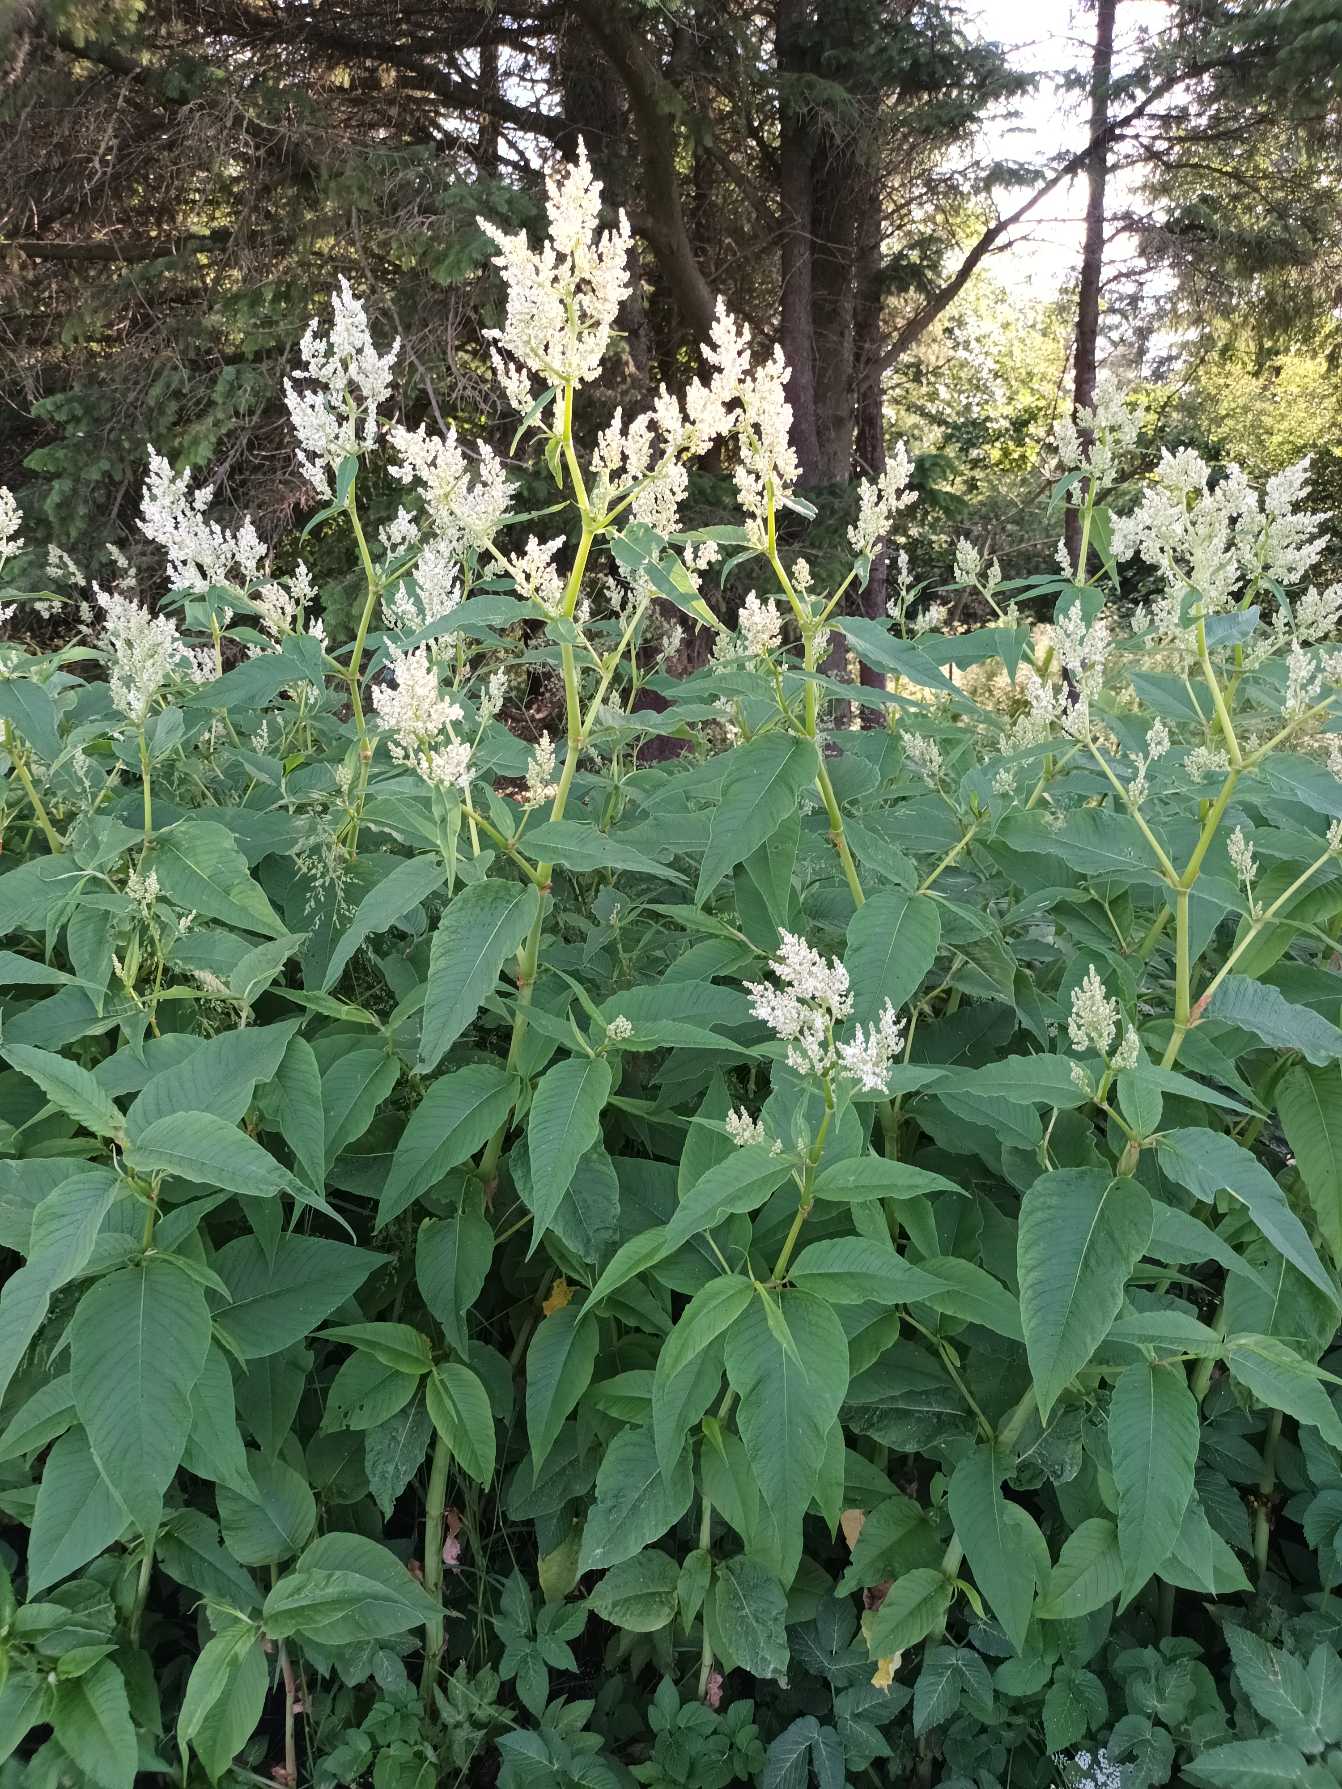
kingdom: Plantae
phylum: Tracheophyta
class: Magnoliopsida
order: Caryophyllales
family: Polygonaceae
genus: Koenigia
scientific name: Koenigia fennica
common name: Finsk pileurt
